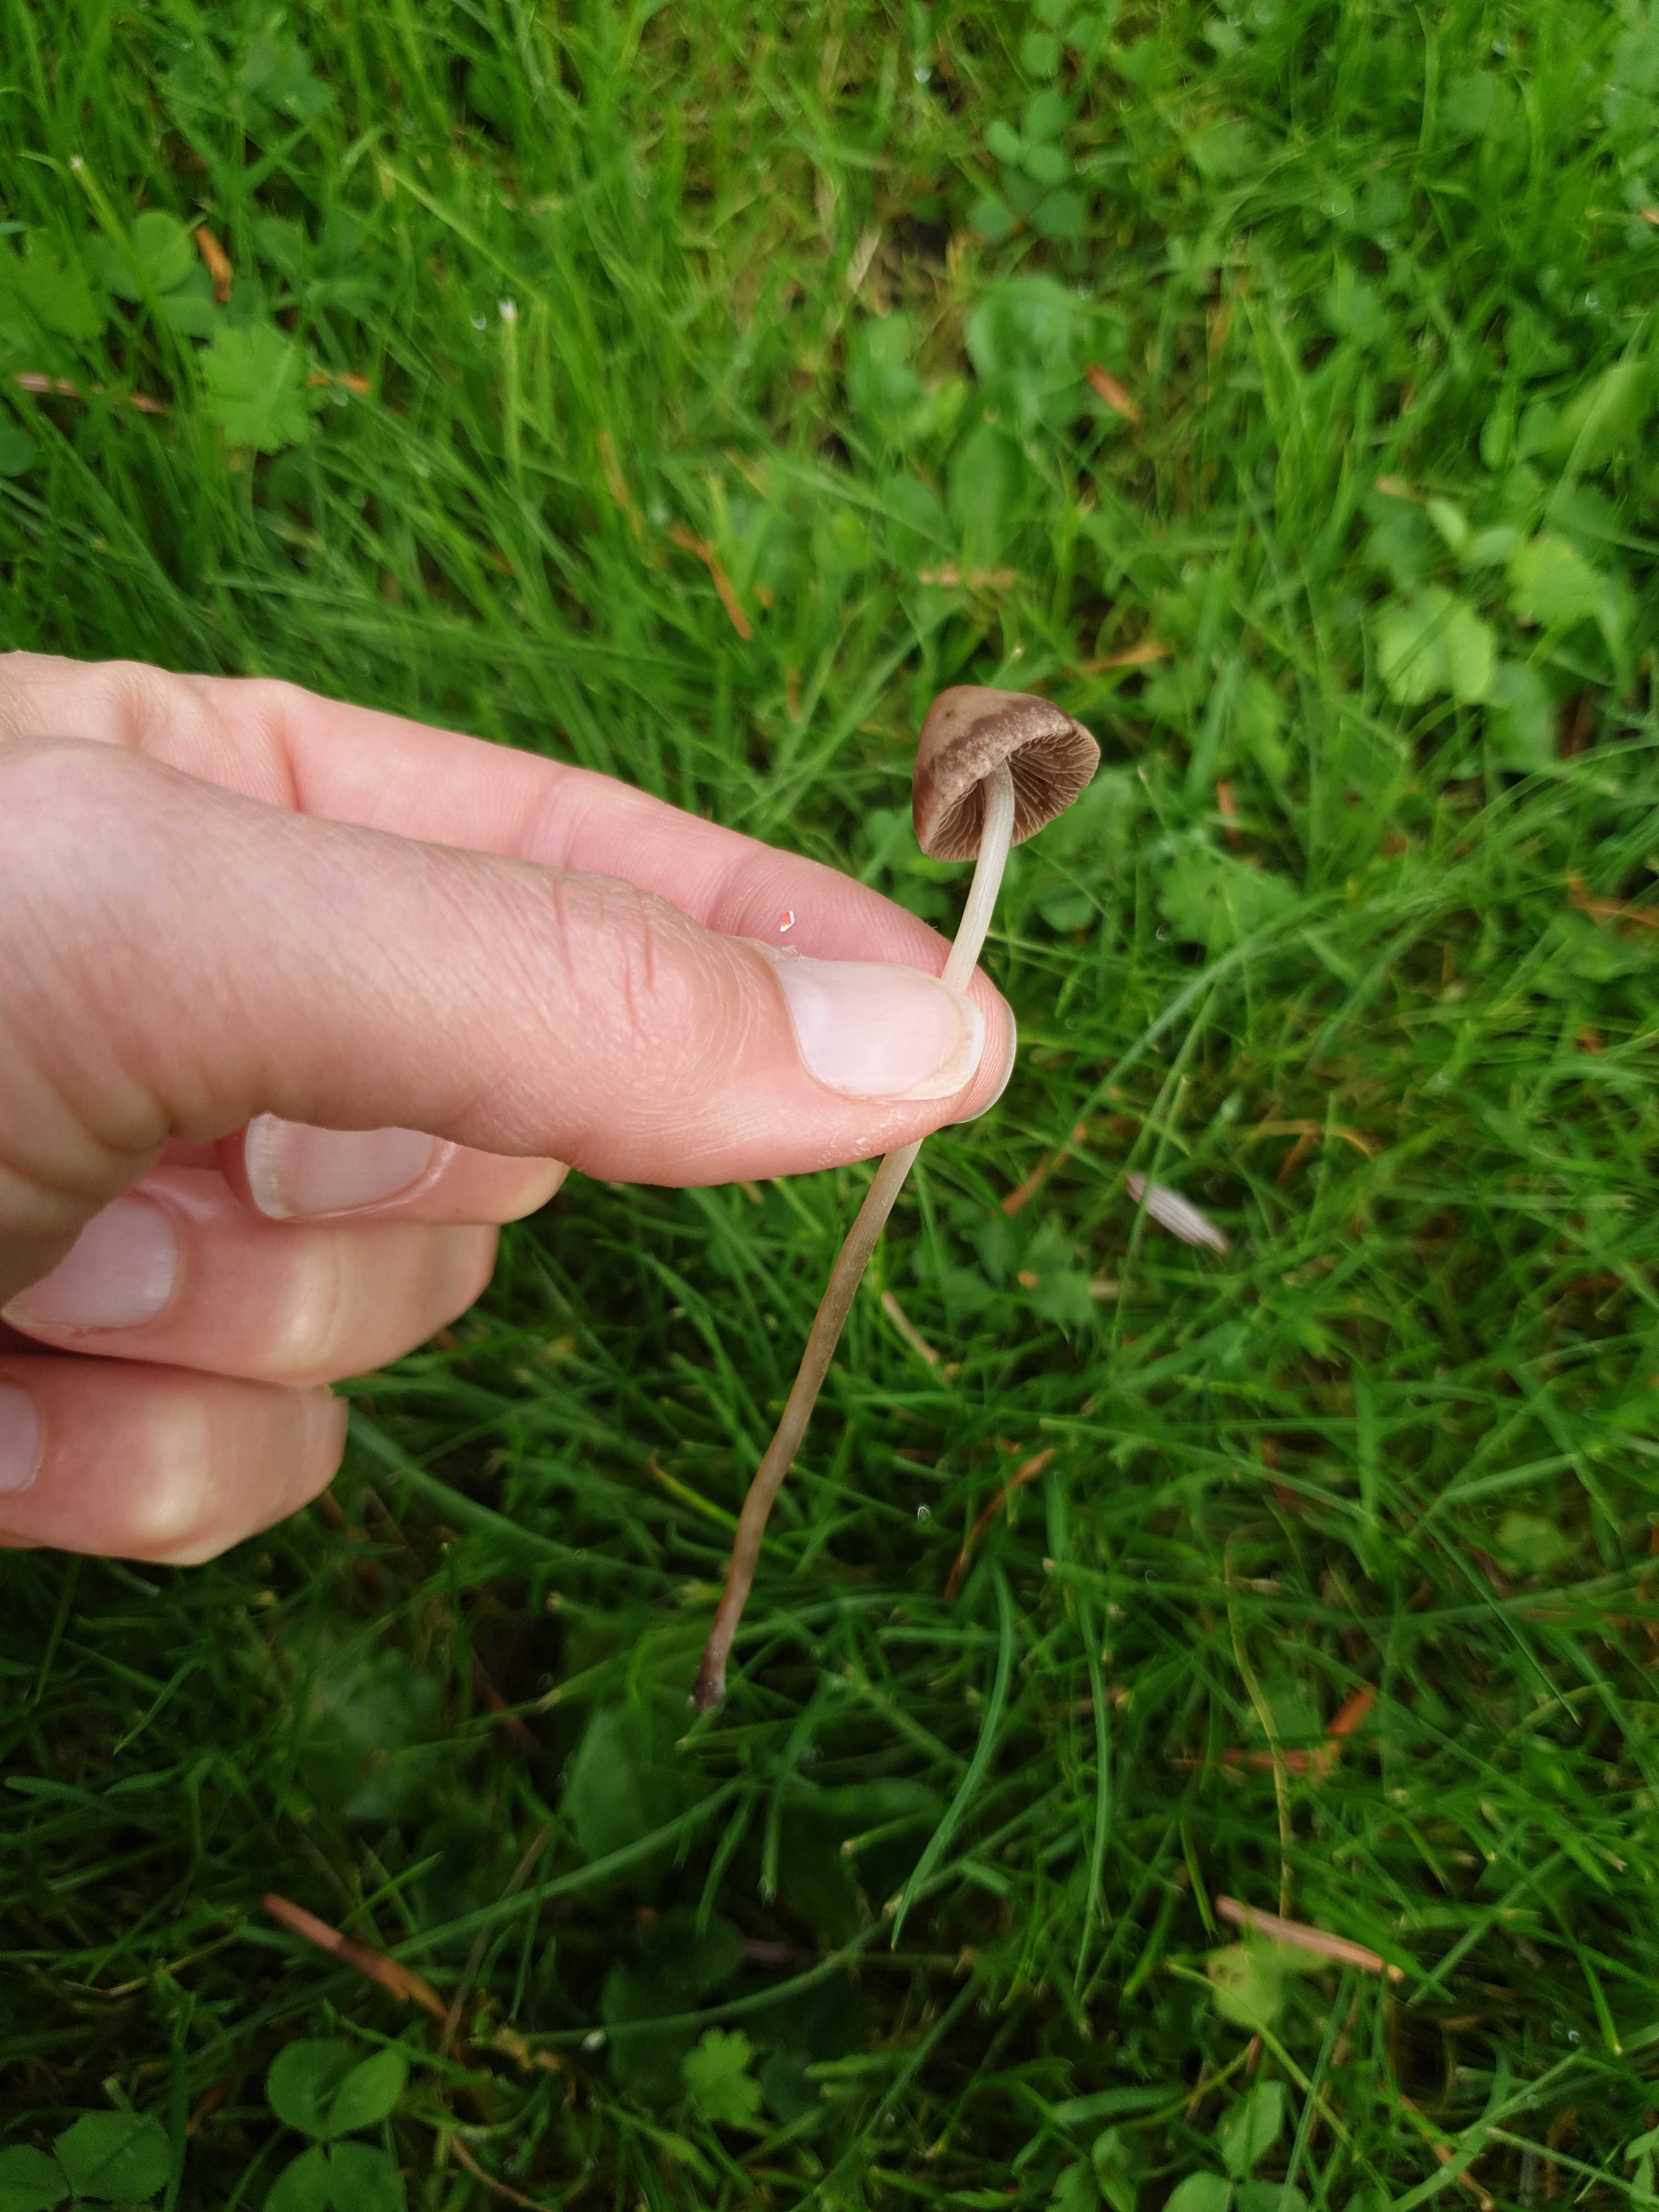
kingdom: Fungi
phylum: Basidiomycota
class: Agaricomycetes
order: Agaricales
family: Bolbitiaceae
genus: Panaeolina
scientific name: Panaeolina foenisecii
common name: høslætsvamp
